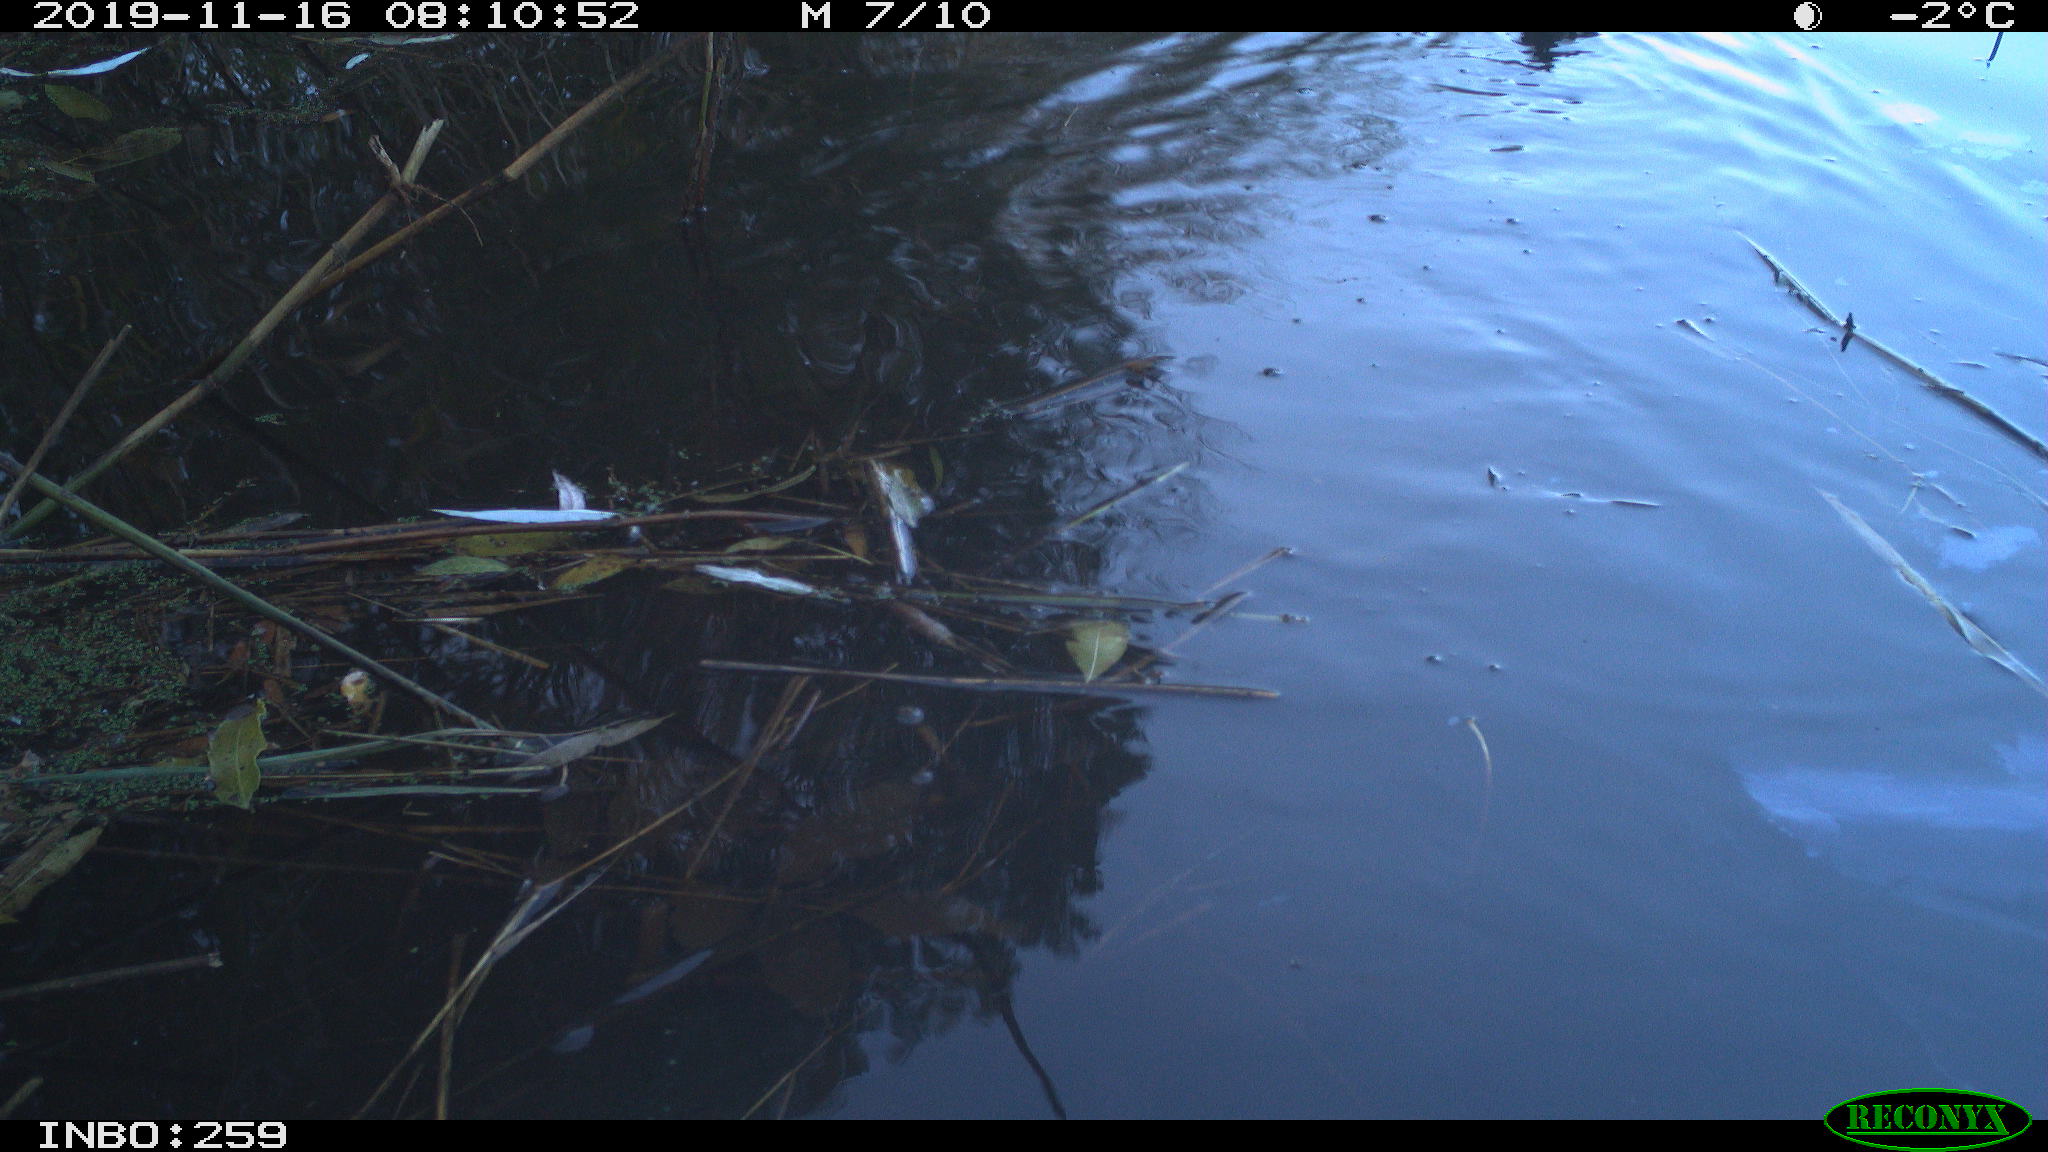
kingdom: Animalia
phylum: Chordata
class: Aves
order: Gruiformes
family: Rallidae
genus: Gallinula
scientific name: Gallinula chloropus
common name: Common moorhen
